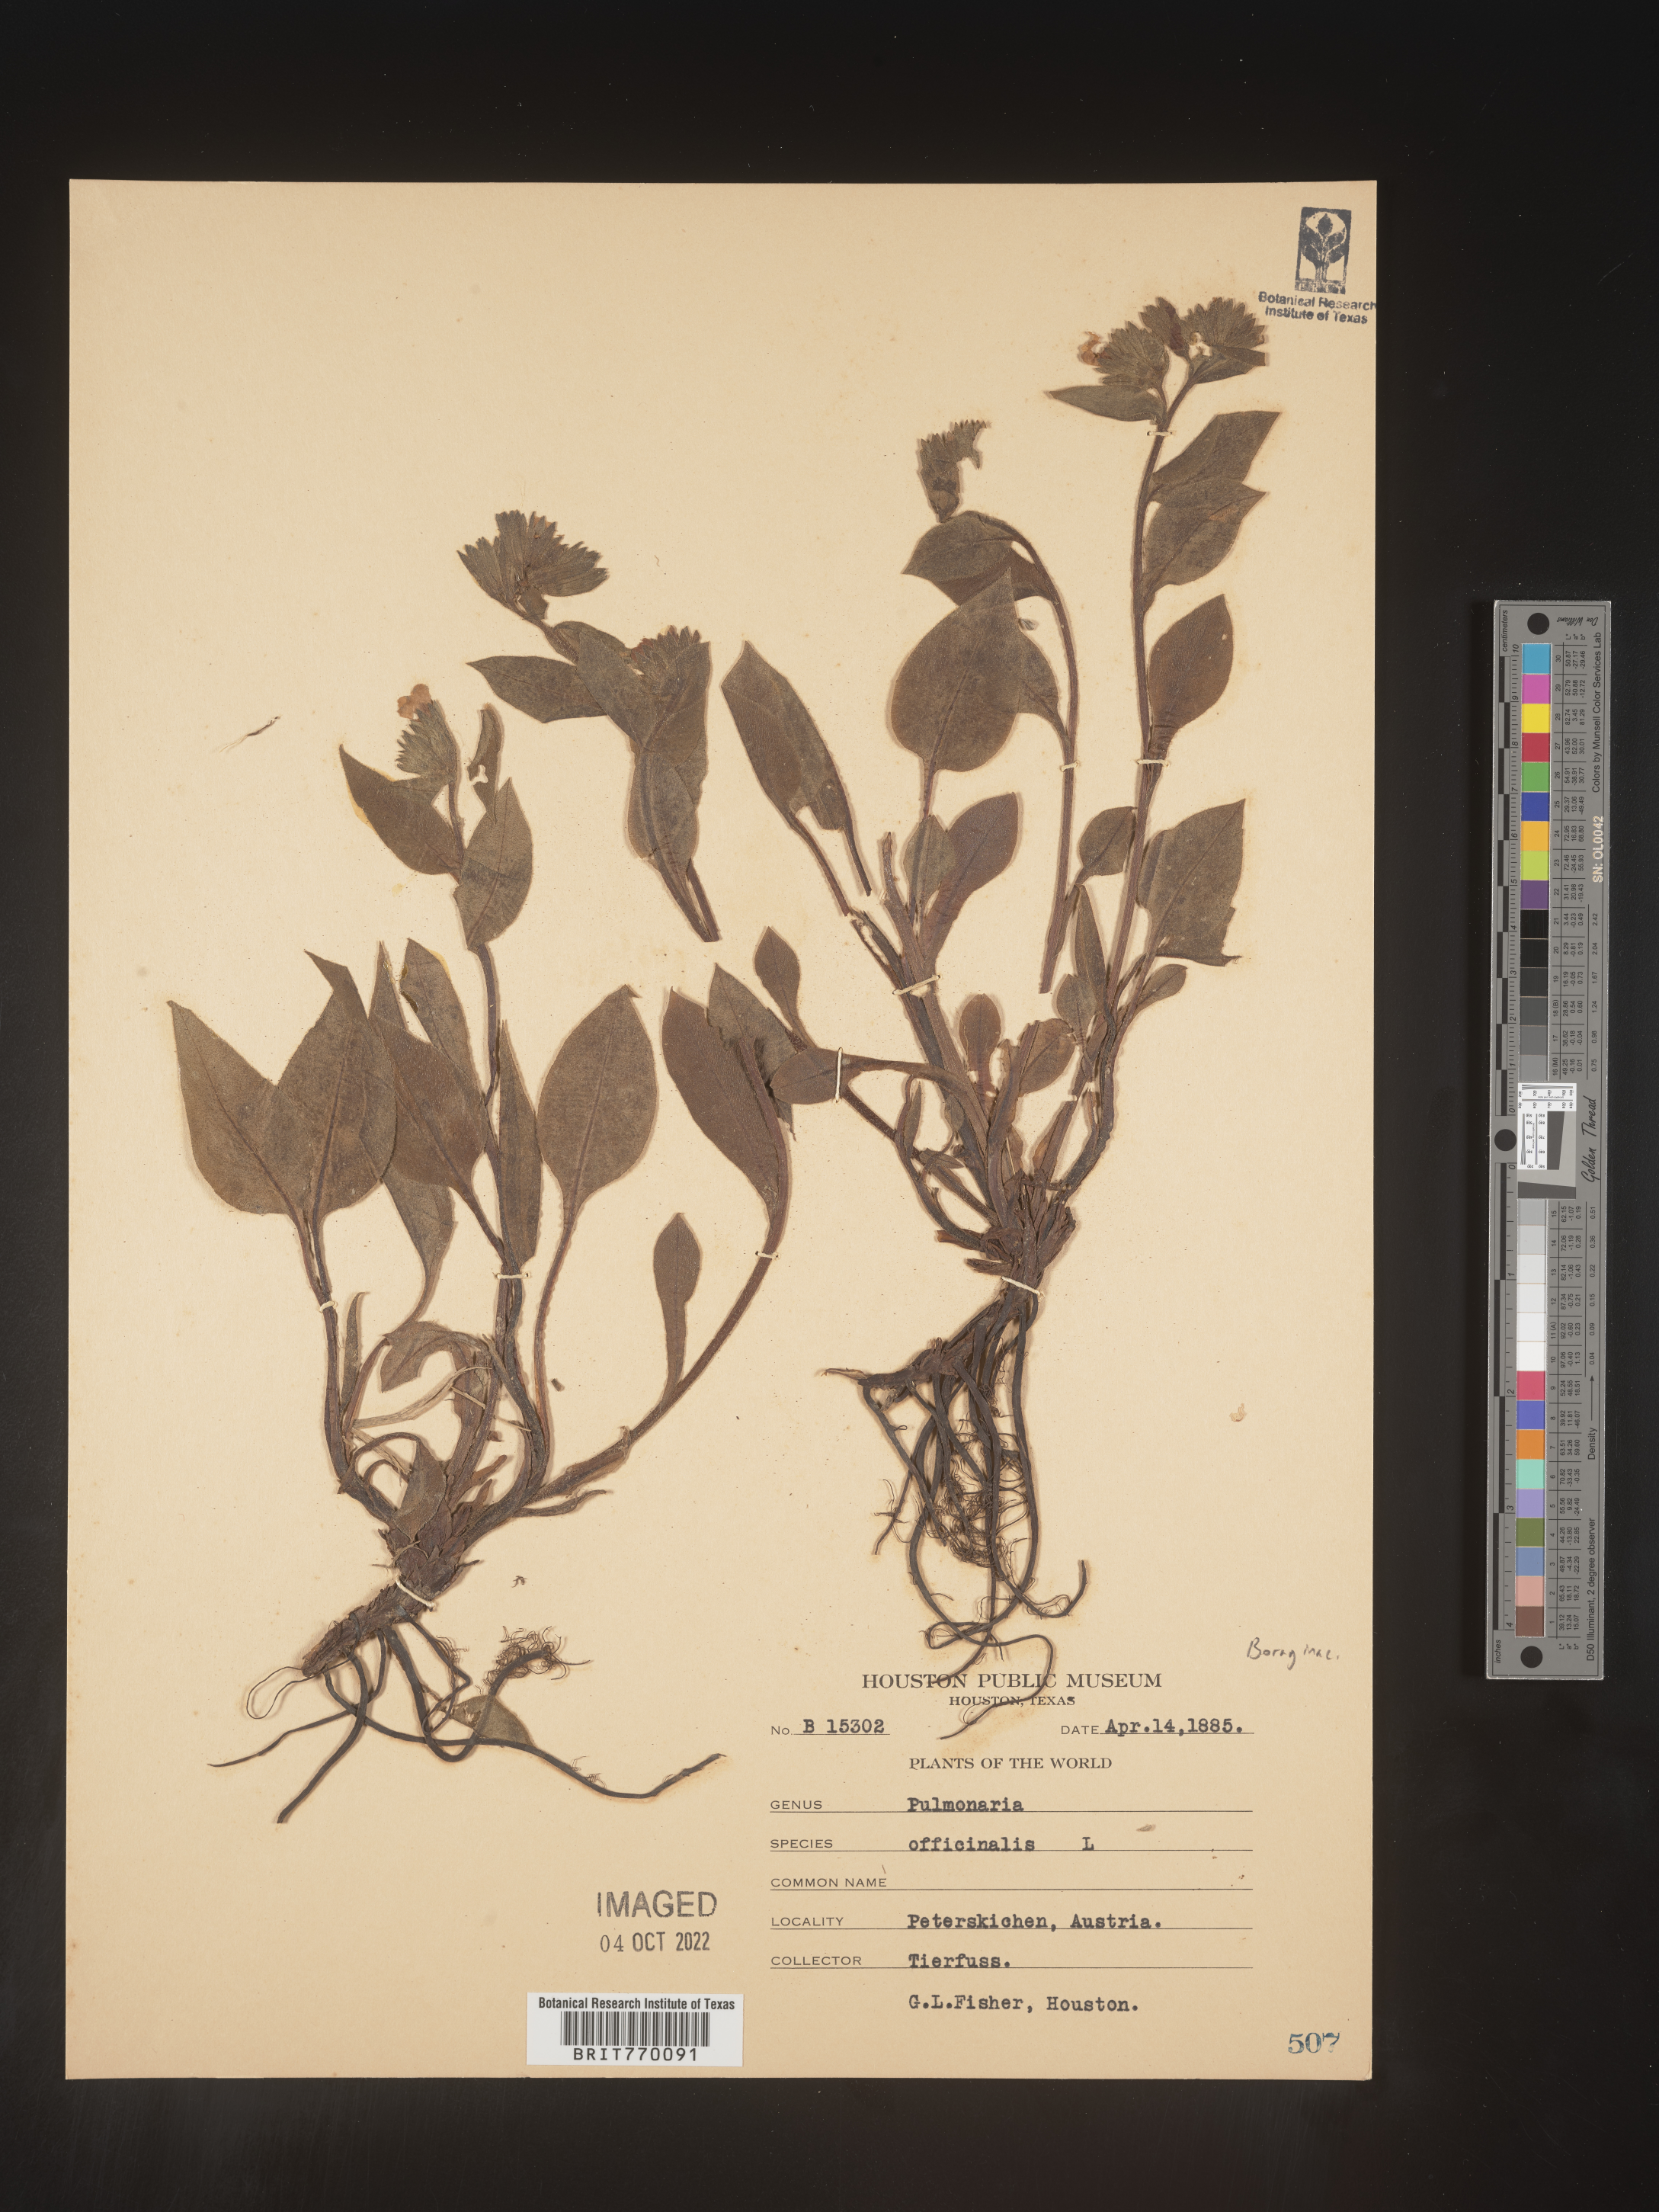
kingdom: Plantae
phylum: Tracheophyta
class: Magnoliopsida
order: Boraginales
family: Boraginaceae
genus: Pulmonaria
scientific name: Pulmonaria
